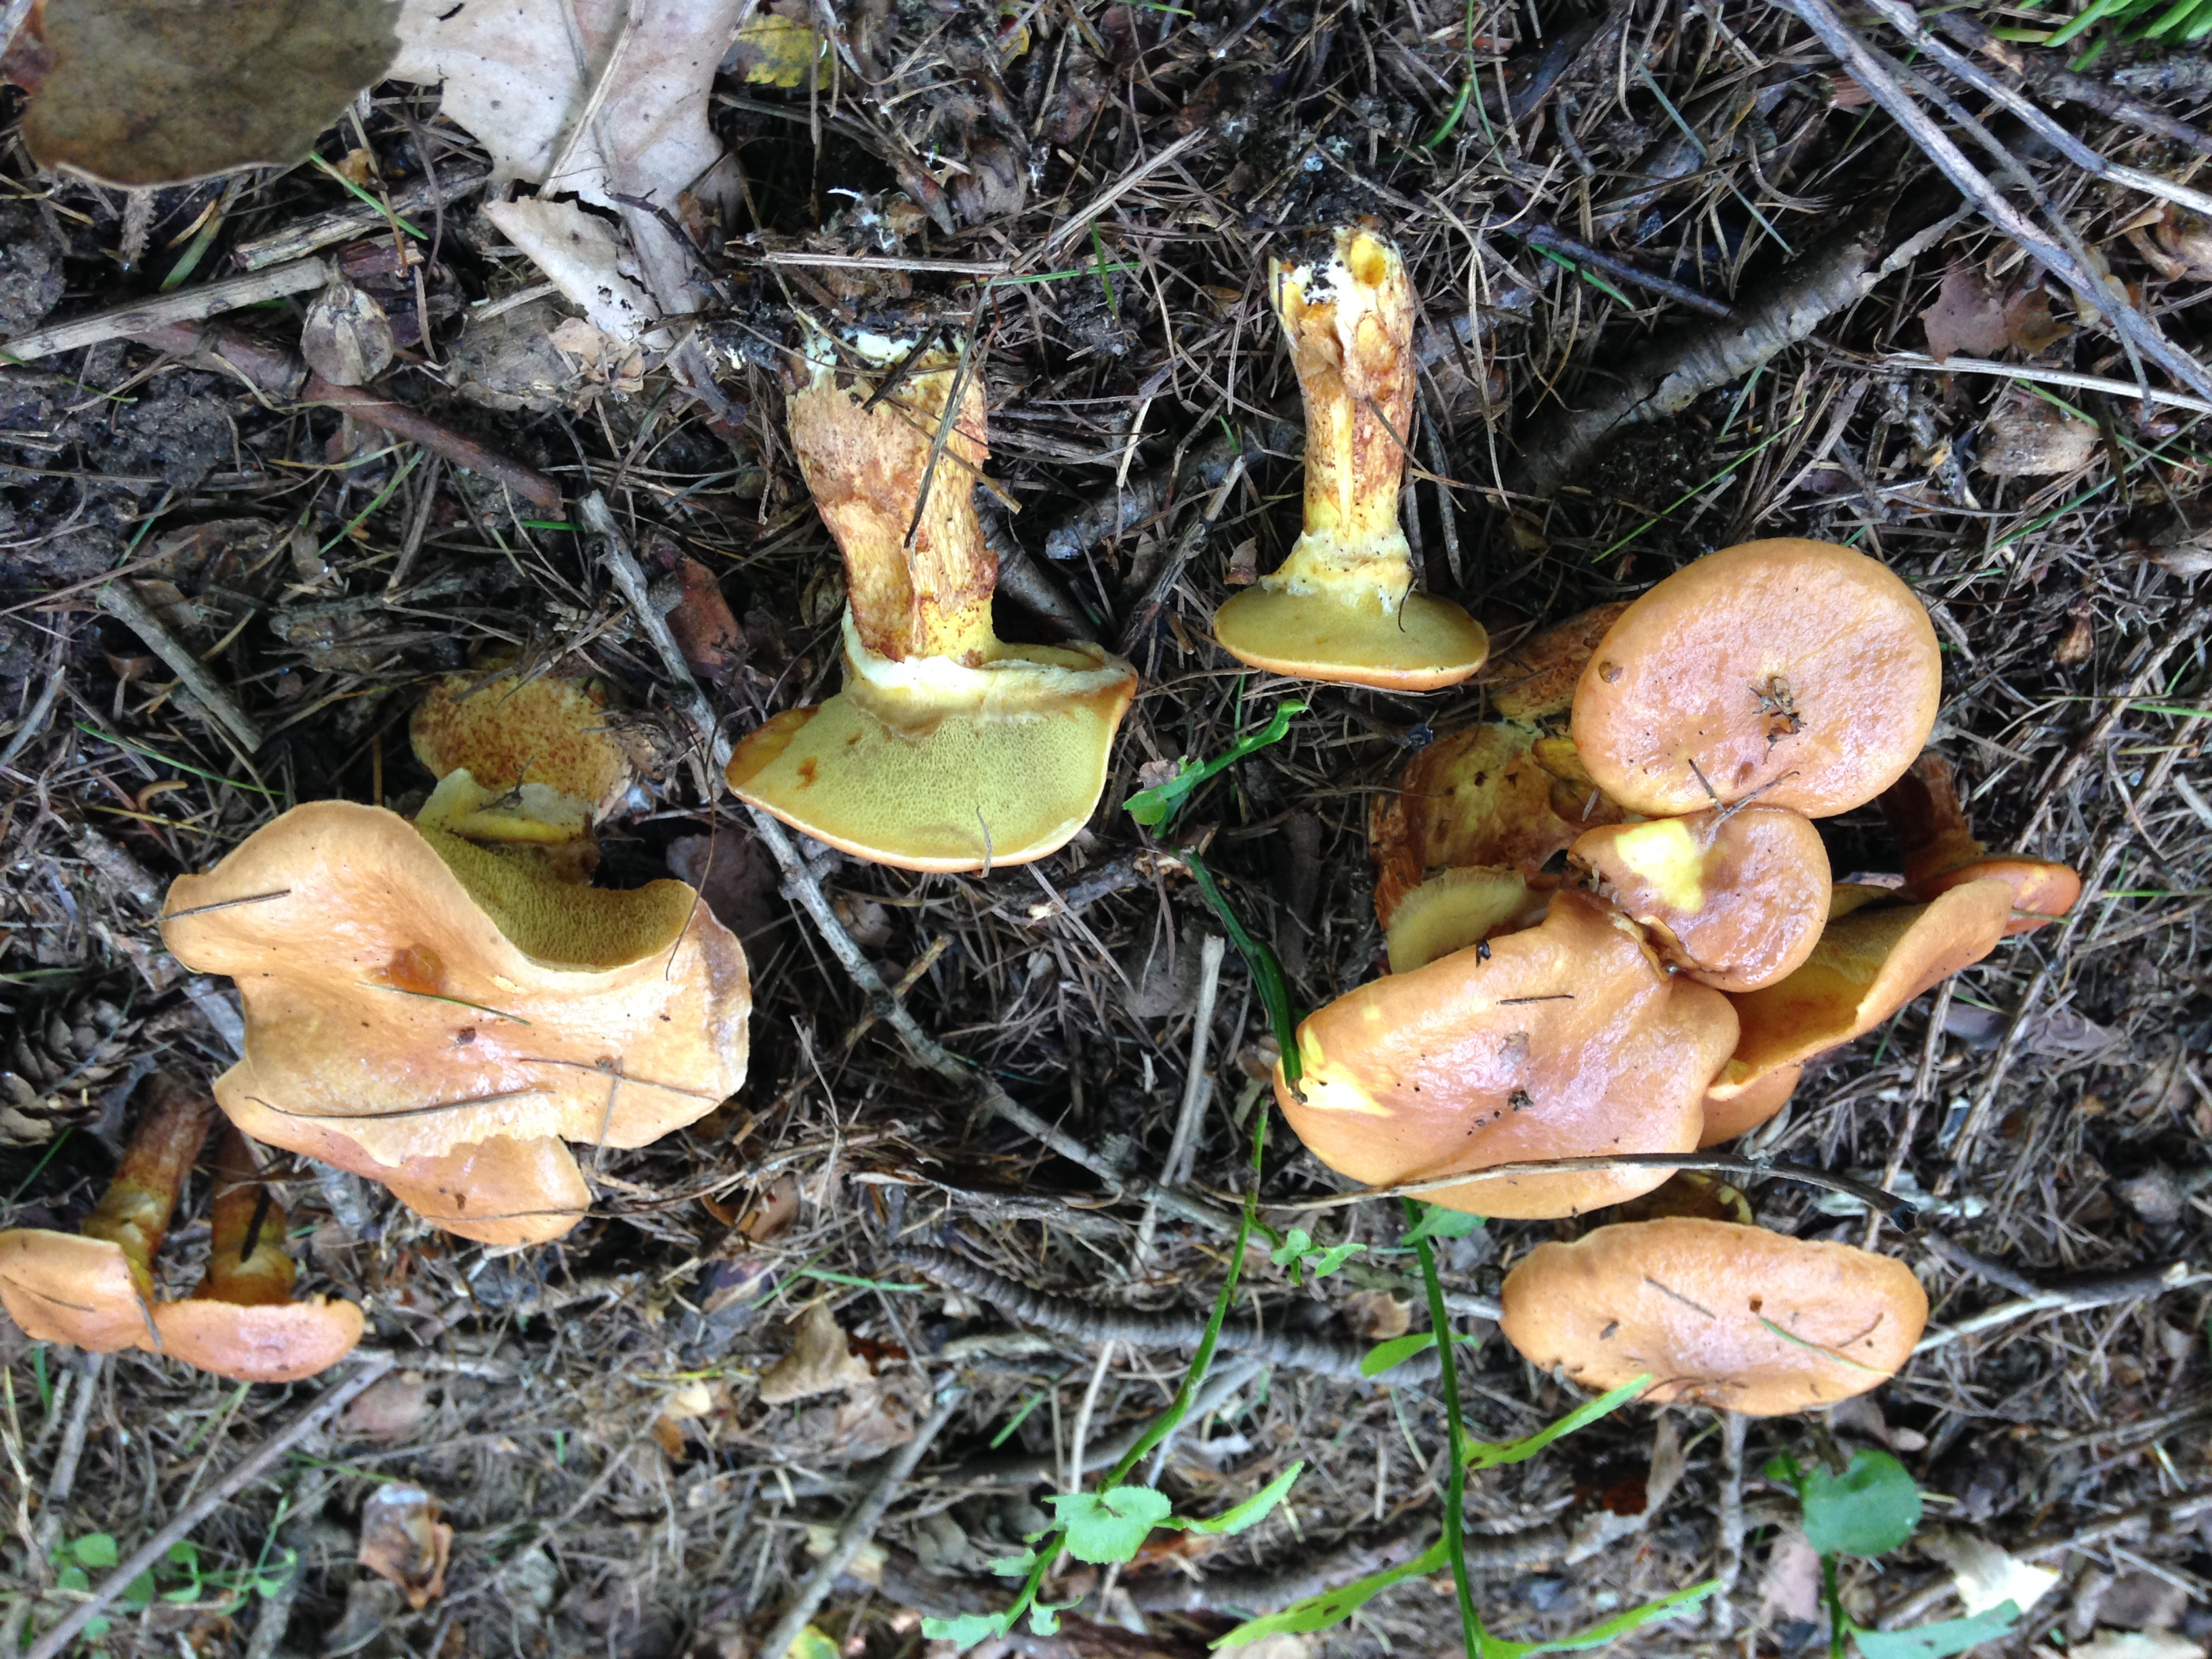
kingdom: Fungi
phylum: Basidiomycota
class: Agaricomycetes
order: Boletales
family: Suillaceae
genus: Suillus
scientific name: Suillus grevillei
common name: Larch bolete
